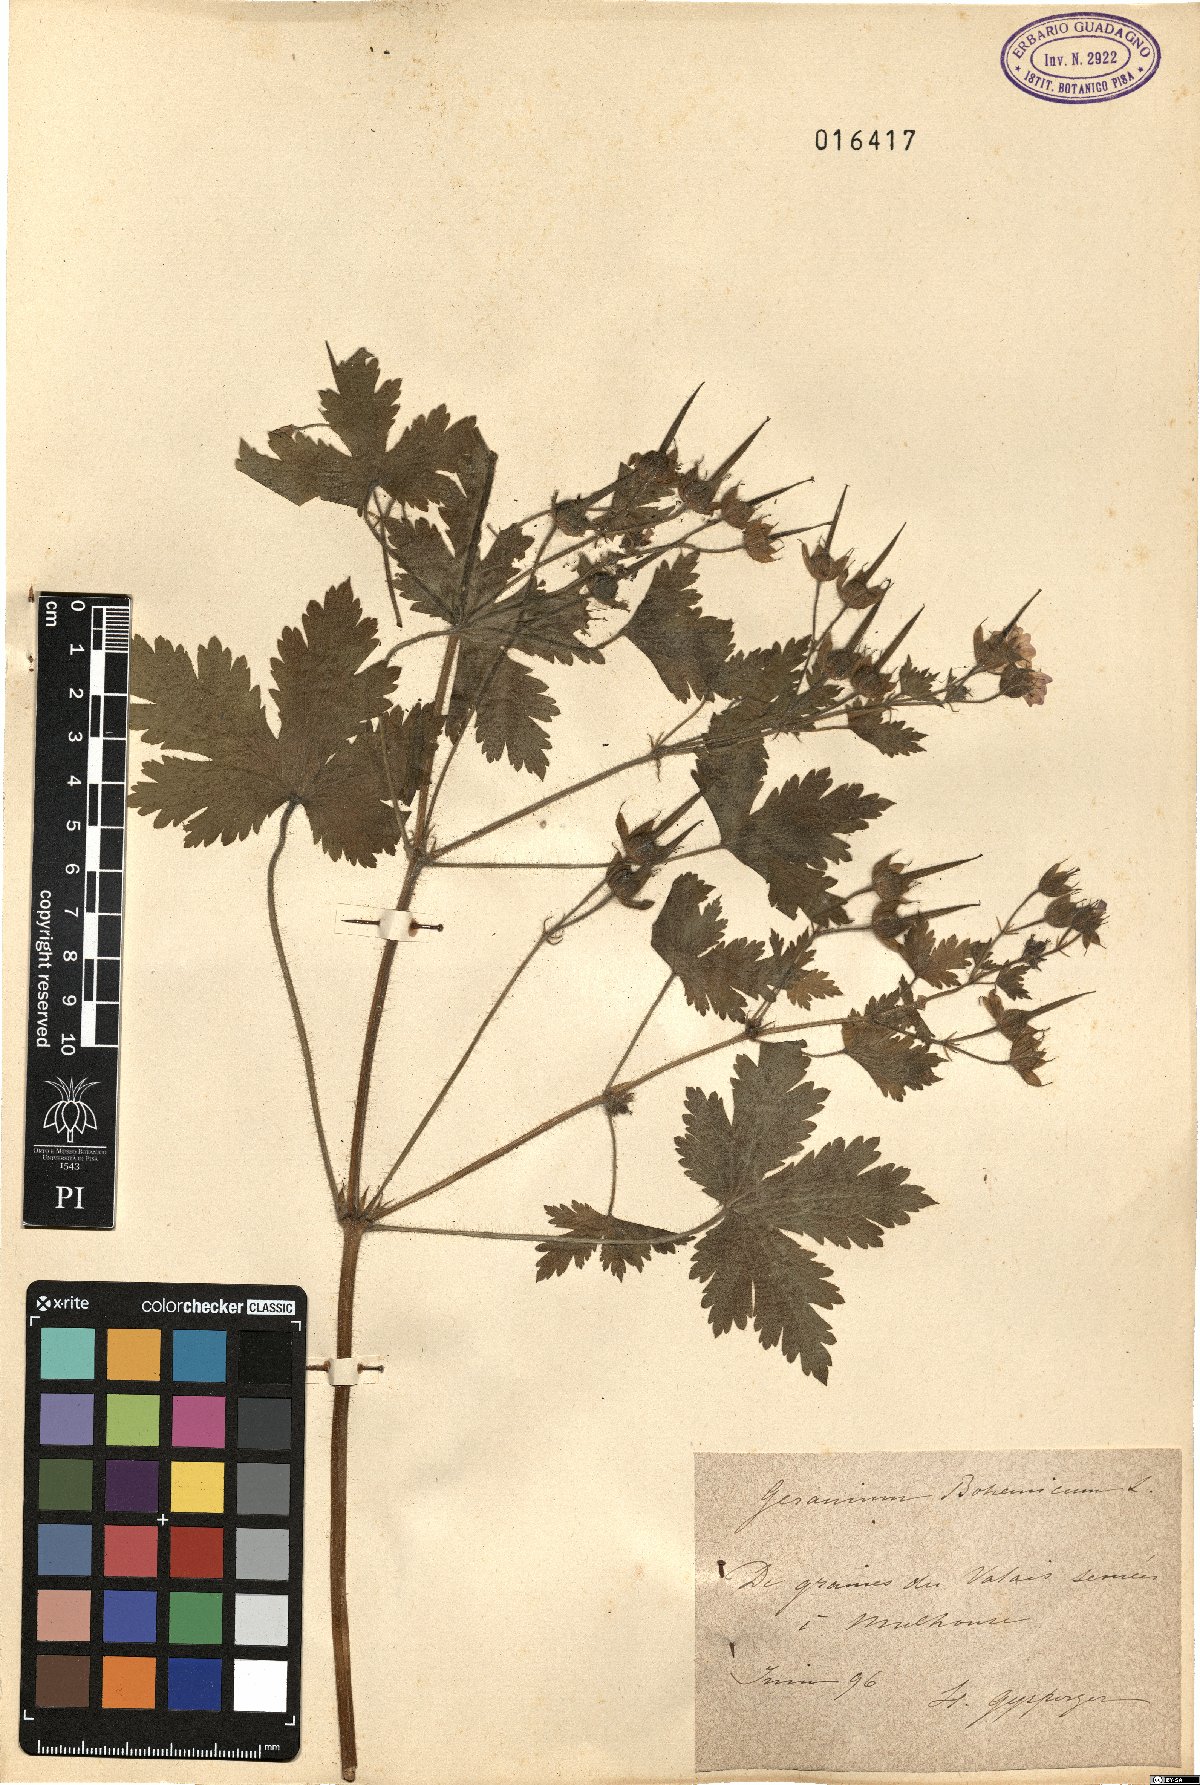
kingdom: Plantae
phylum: Tracheophyta
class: Magnoliopsida
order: Geraniales
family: Geraniaceae
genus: Geranium
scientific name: Geranium bohemicum
